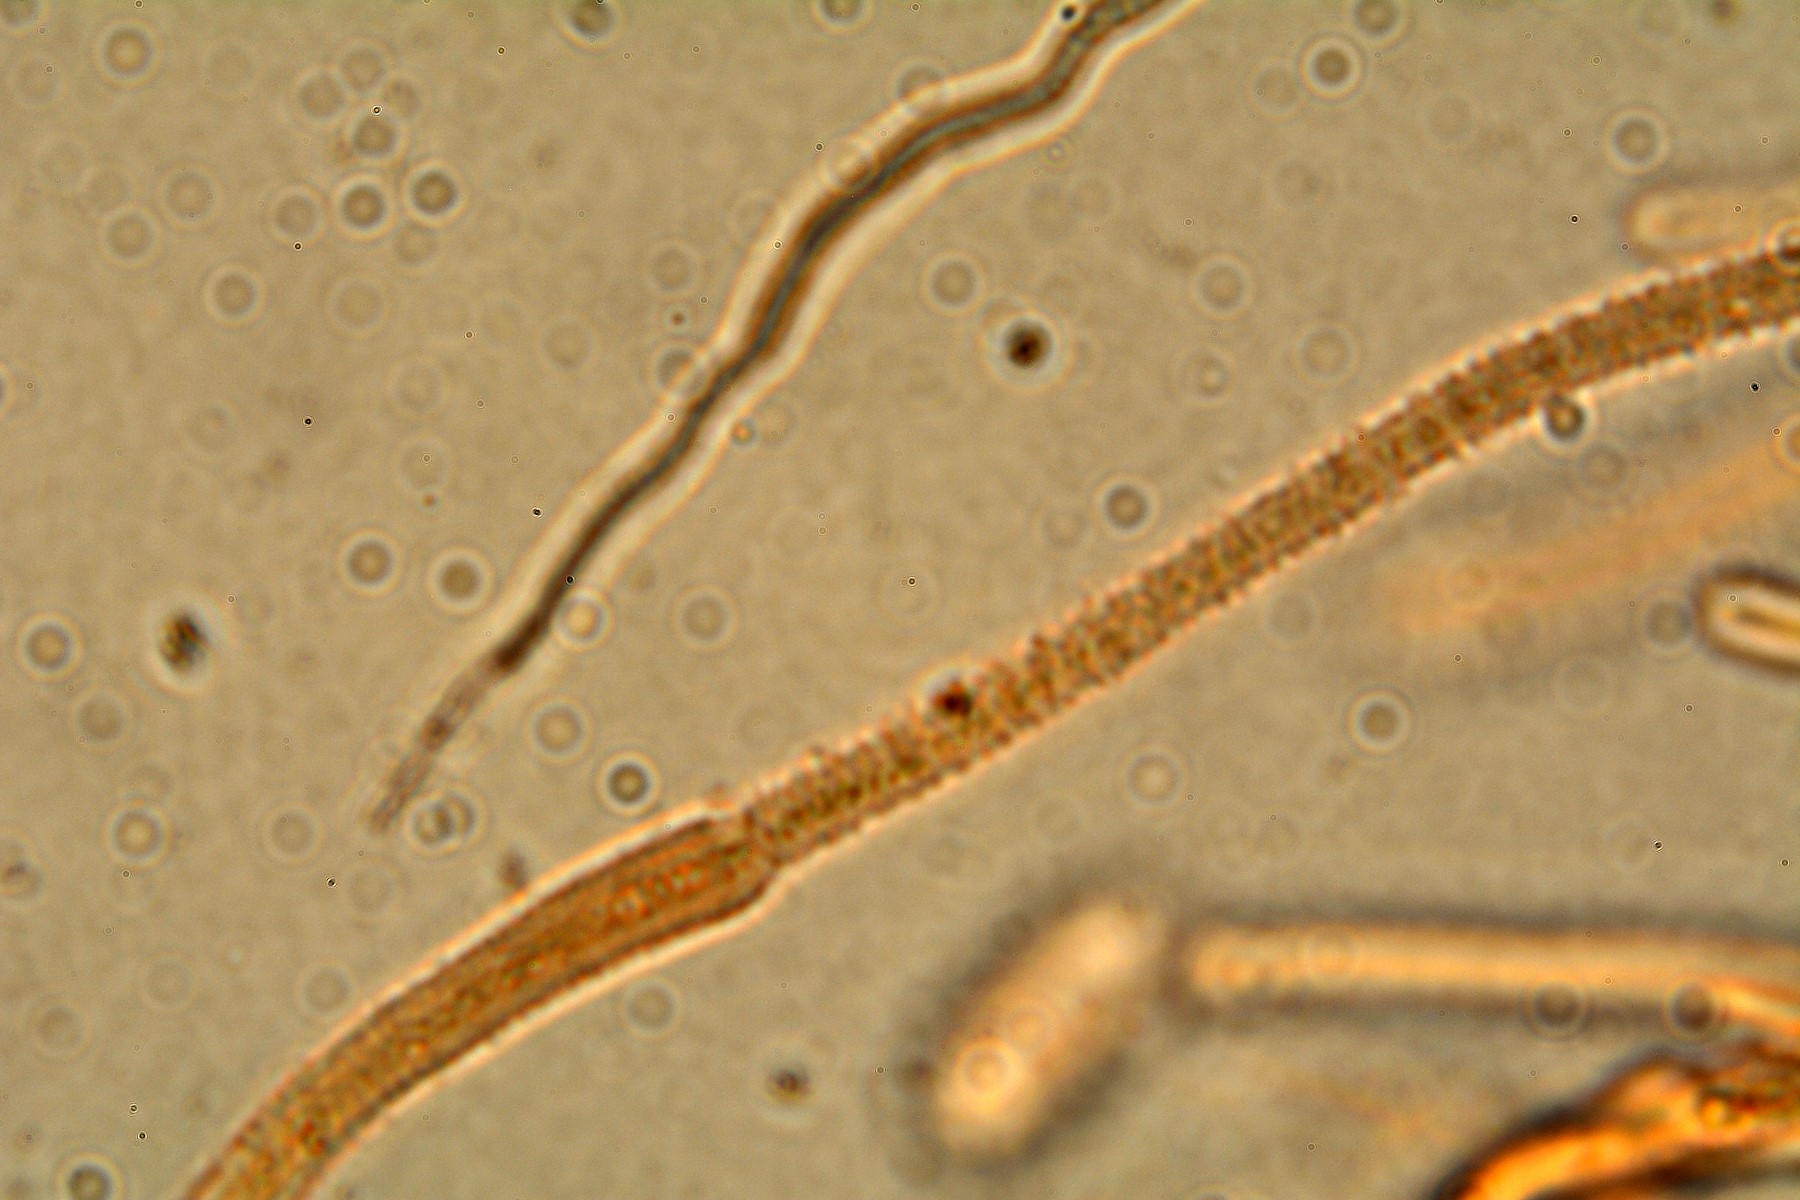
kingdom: Fungi
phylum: Basidiomycota
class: Dacrymycetes
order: Dacrymycetales
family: Dacrymycetaceae
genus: Dacrymyces
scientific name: Dacrymyces lacrymalis
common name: rynket tåresvamp
